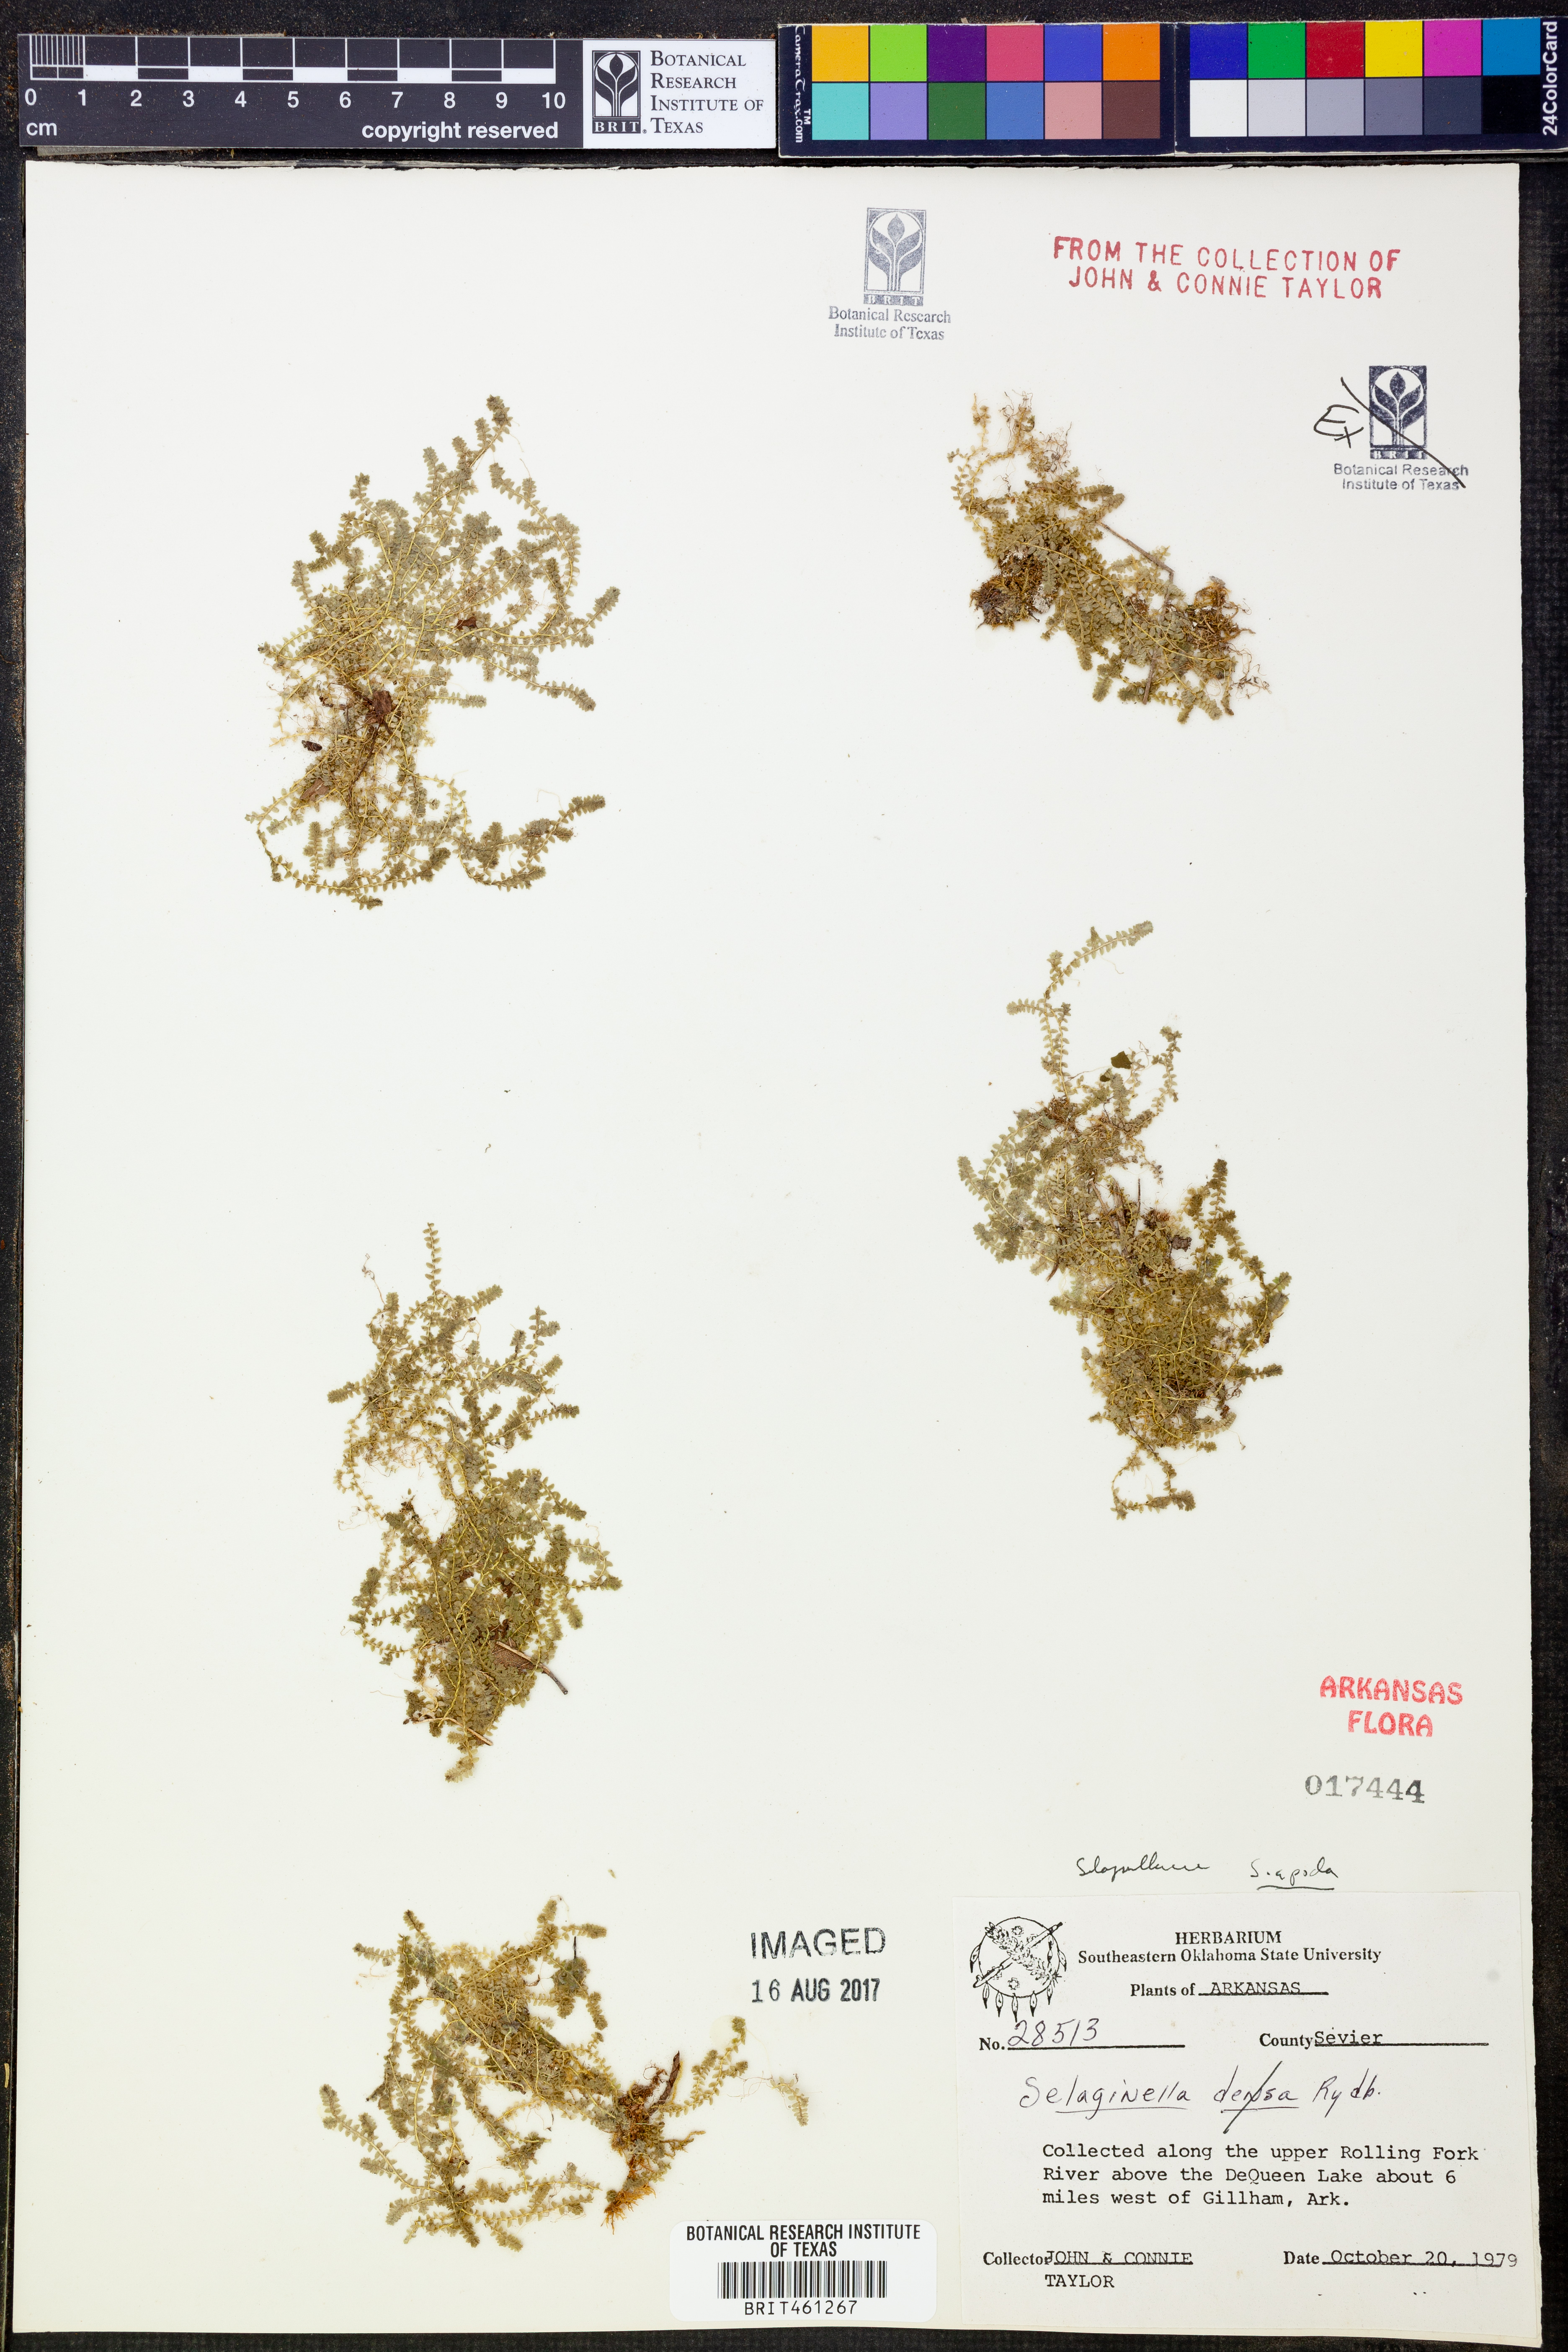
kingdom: Plantae
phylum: Tracheophyta
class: Lycopodiopsida
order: Selaginellales
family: Selaginellaceae
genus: Selaginella
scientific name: Selaginella apoda
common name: Creeping spikemoss
